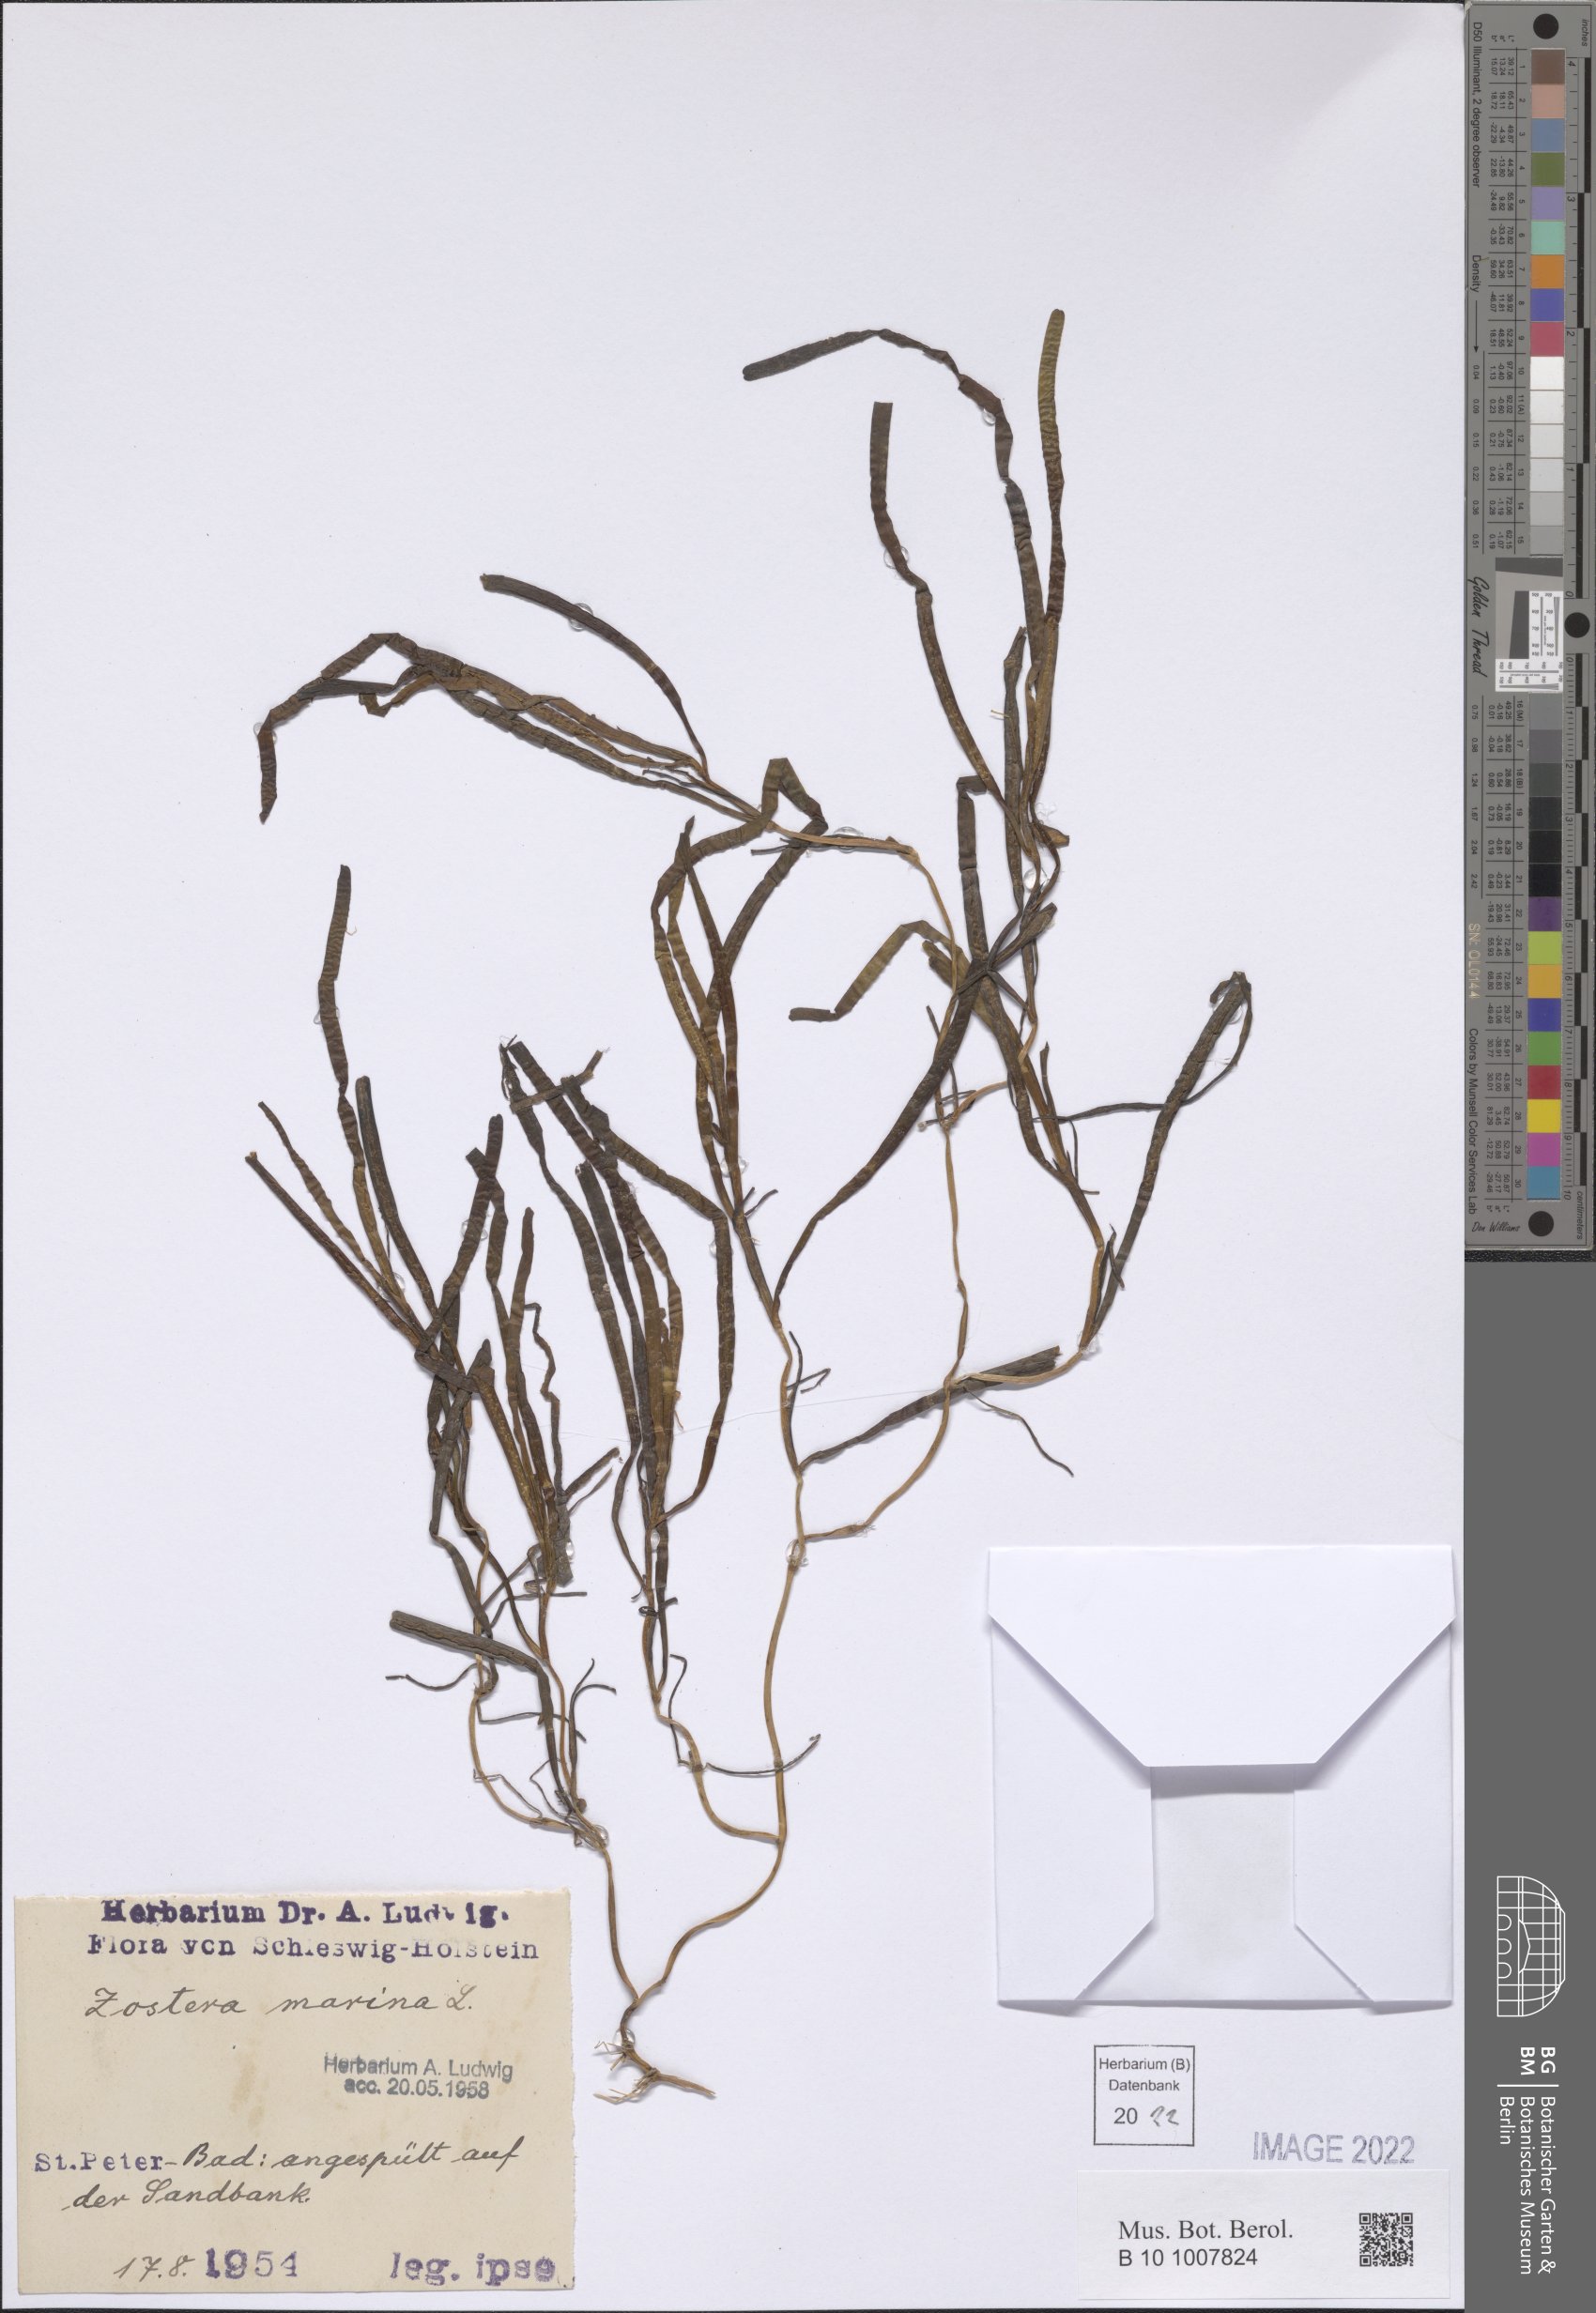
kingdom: Plantae
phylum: Tracheophyta
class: Liliopsida
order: Alismatales
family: Zosteraceae
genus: Zostera
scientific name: Zostera marina
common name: Eelgrass
